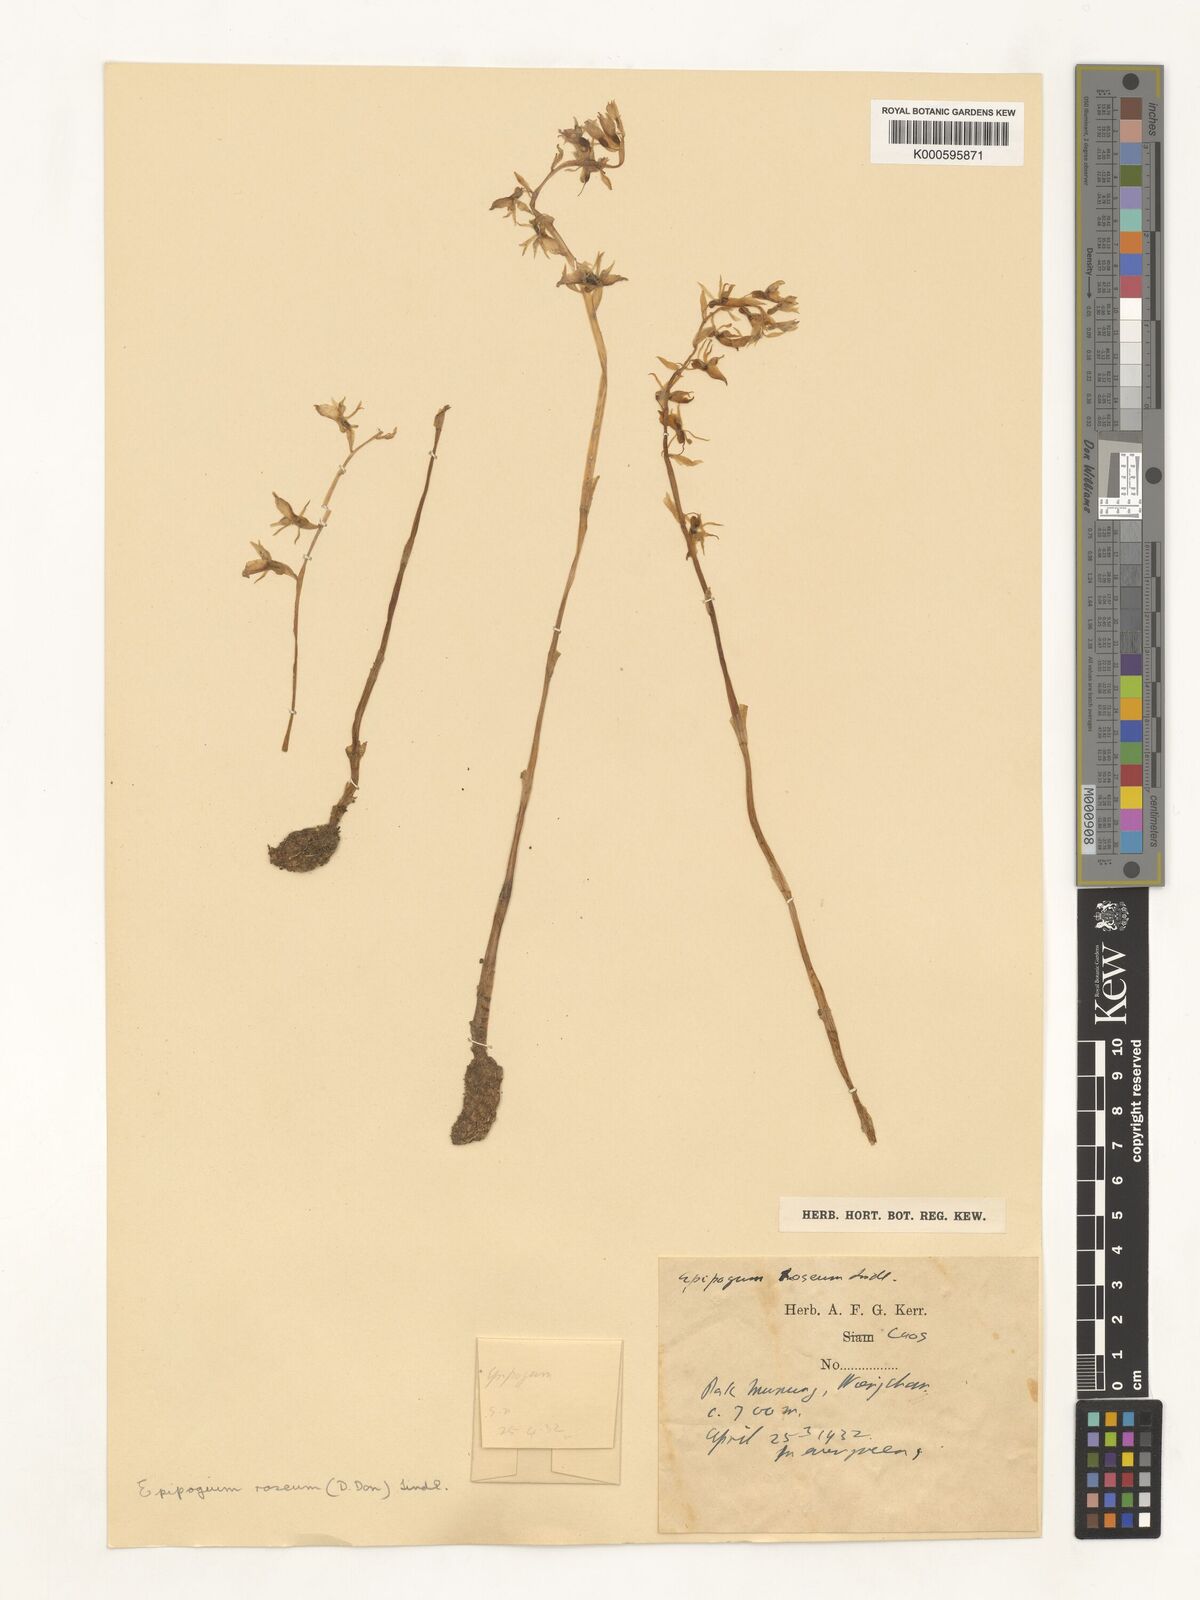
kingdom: Plantae
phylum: Tracheophyta
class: Liliopsida
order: Asparagales
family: Orchidaceae
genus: Epipogium
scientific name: Epipogium roseum
